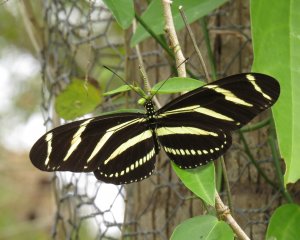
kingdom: Animalia
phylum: Arthropoda
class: Insecta
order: Lepidoptera
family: Nymphalidae
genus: Heliconius
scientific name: Heliconius charithonia
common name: Zebra Longwing
